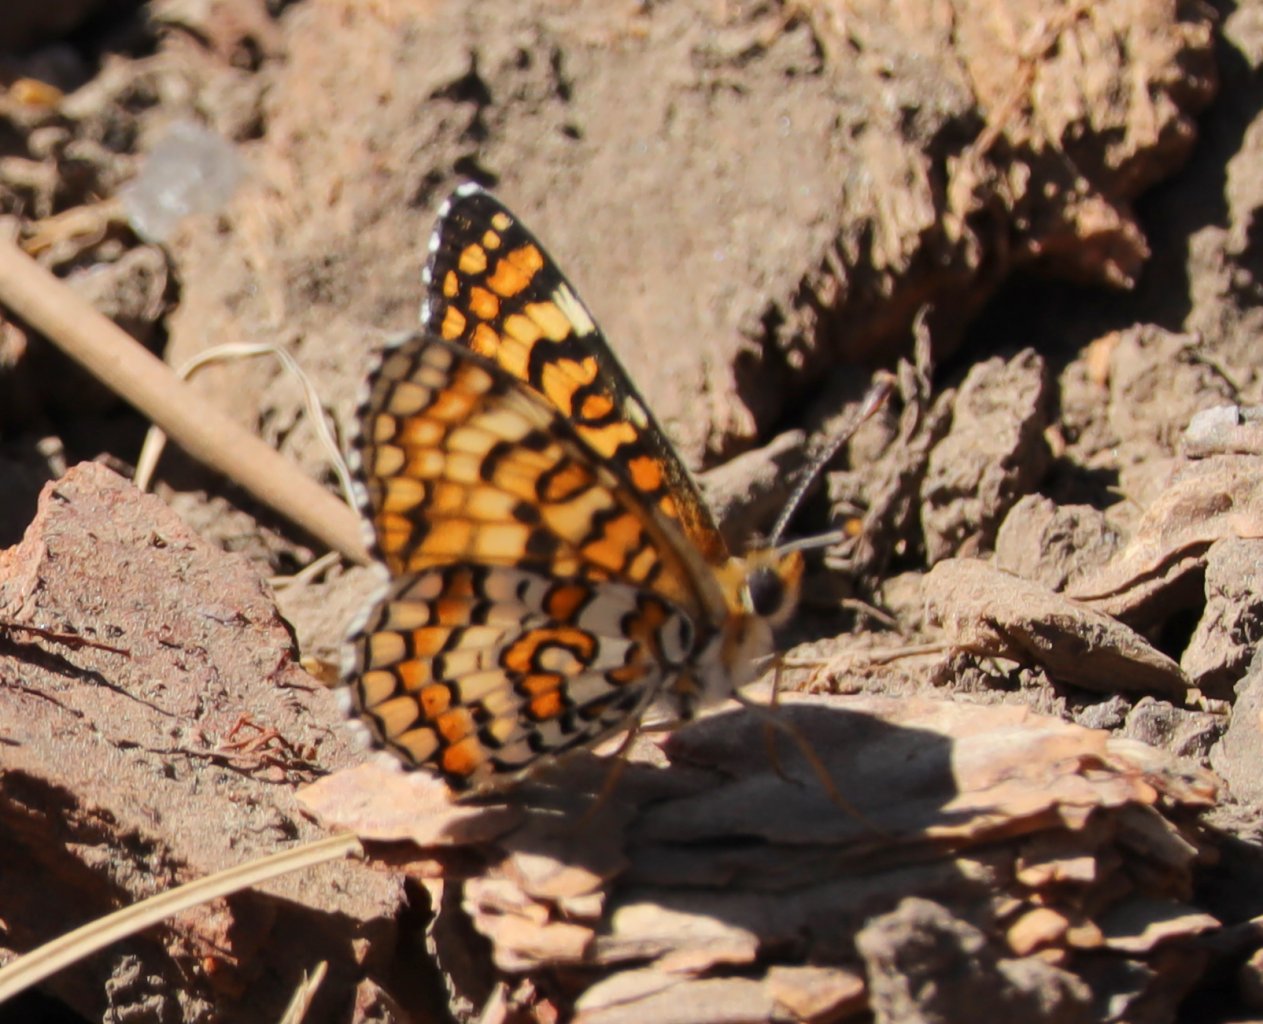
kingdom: Animalia
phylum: Arthropoda
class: Insecta
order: Lepidoptera
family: Nymphalidae
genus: Poladryas
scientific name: Poladryas minuta
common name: Arachne Checkerspot
